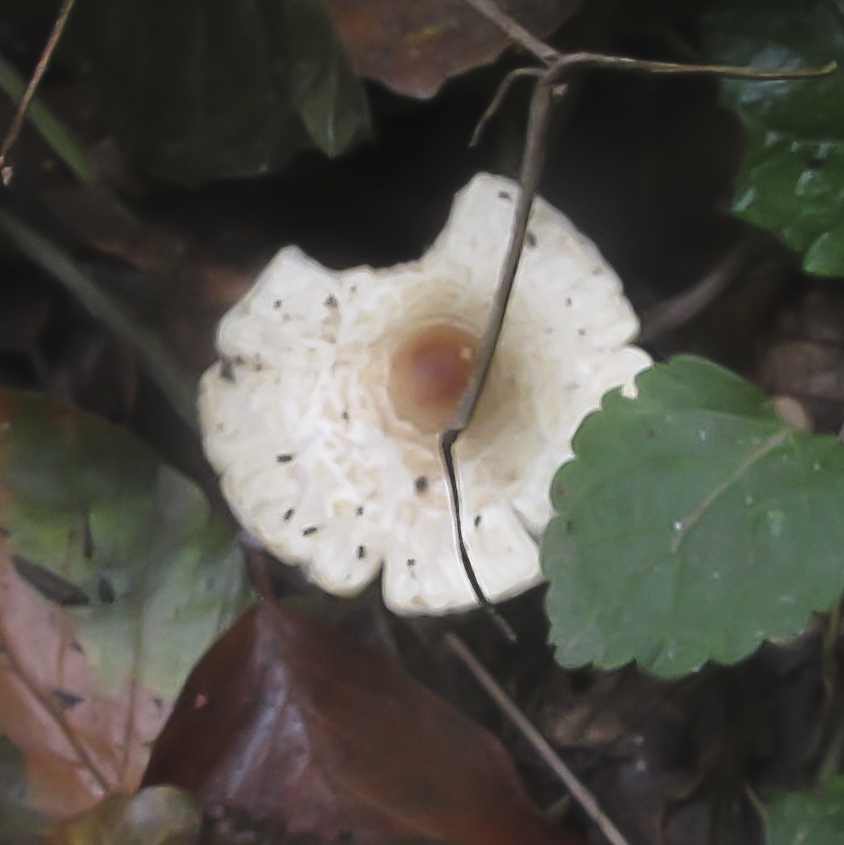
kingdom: Fungi
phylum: Basidiomycota
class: Agaricomycetes
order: Agaricales
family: Agaricaceae
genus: Lepiota
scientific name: Lepiota cristata
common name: stinkende parasolhat
